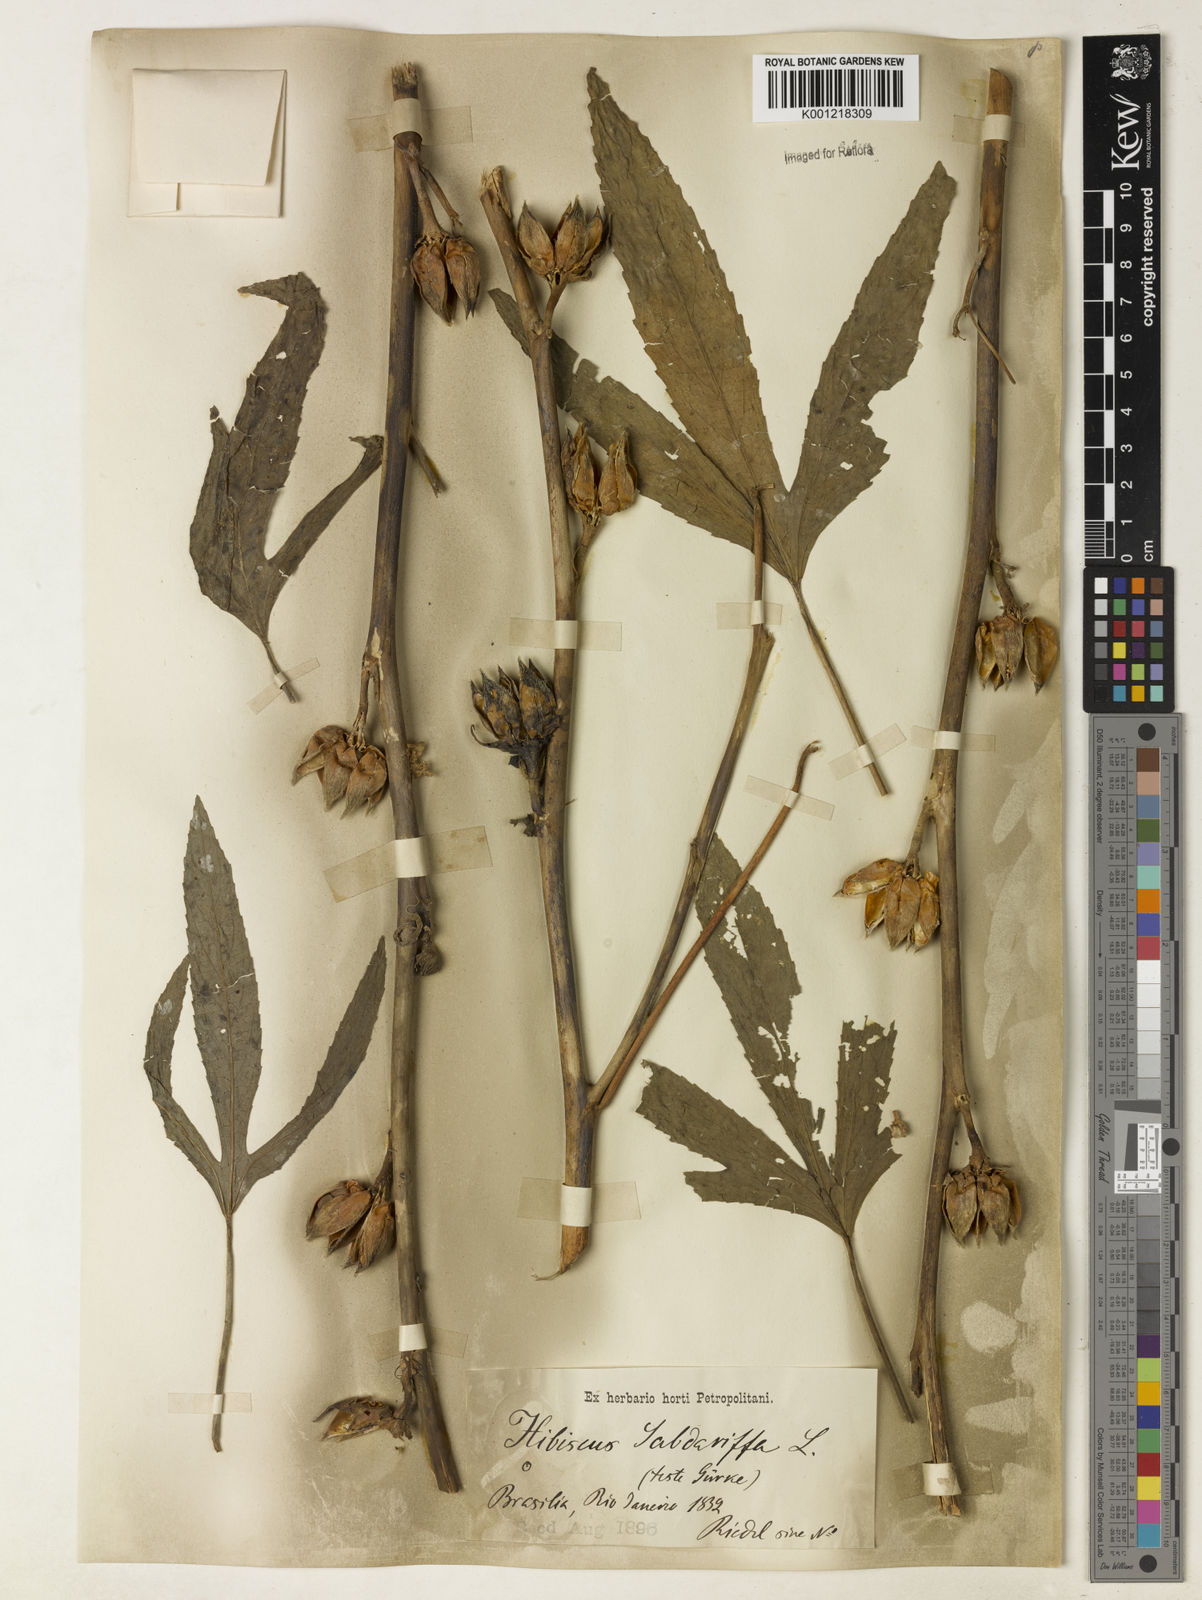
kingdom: Plantae
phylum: Tracheophyta
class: Magnoliopsida
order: Malvales
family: Malvaceae
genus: Hibiscus
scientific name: Hibiscus sabdariffa
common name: Roselle
